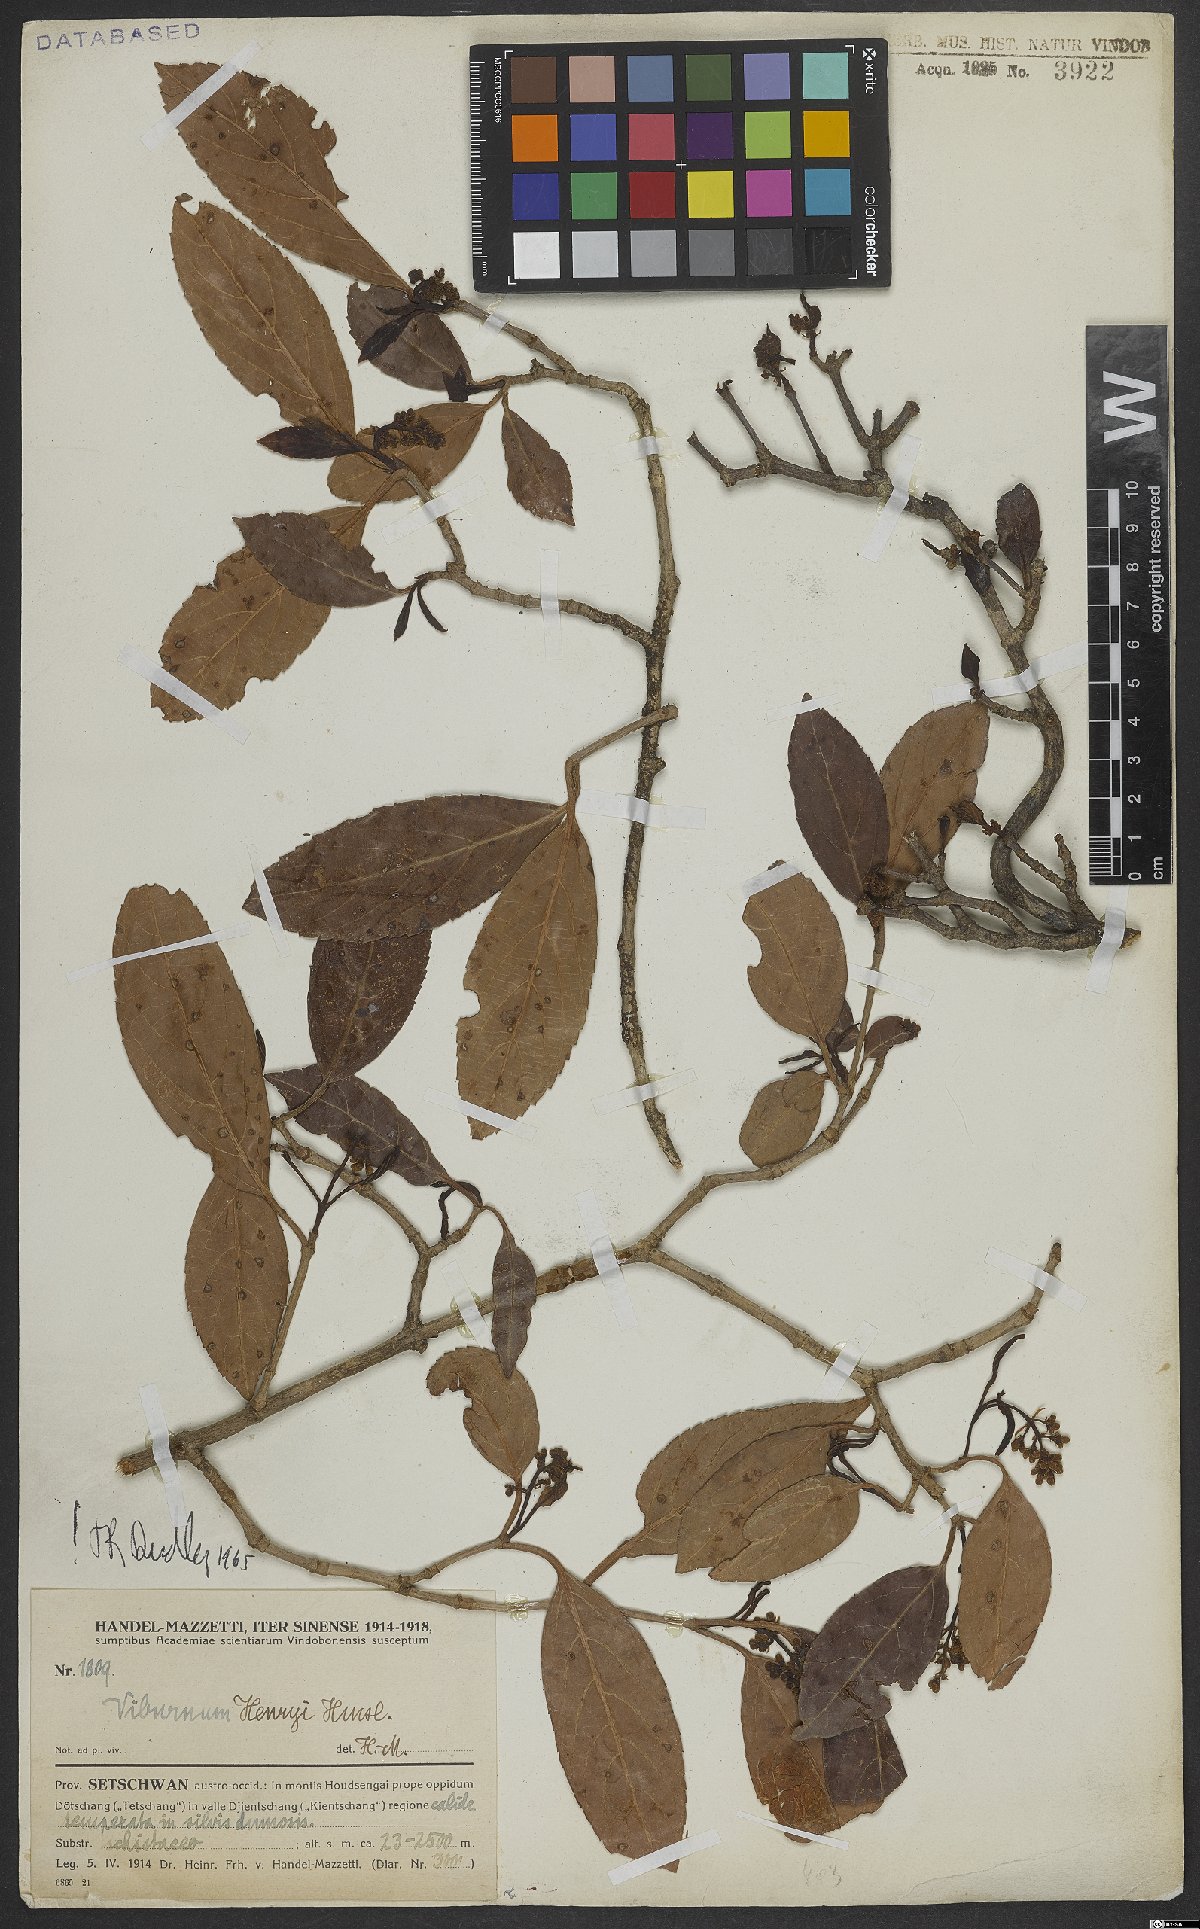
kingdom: Plantae
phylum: Tracheophyta
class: Magnoliopsida
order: Dipsacales
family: Viburnaceae
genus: Viburnum
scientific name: Viburnum henryi
